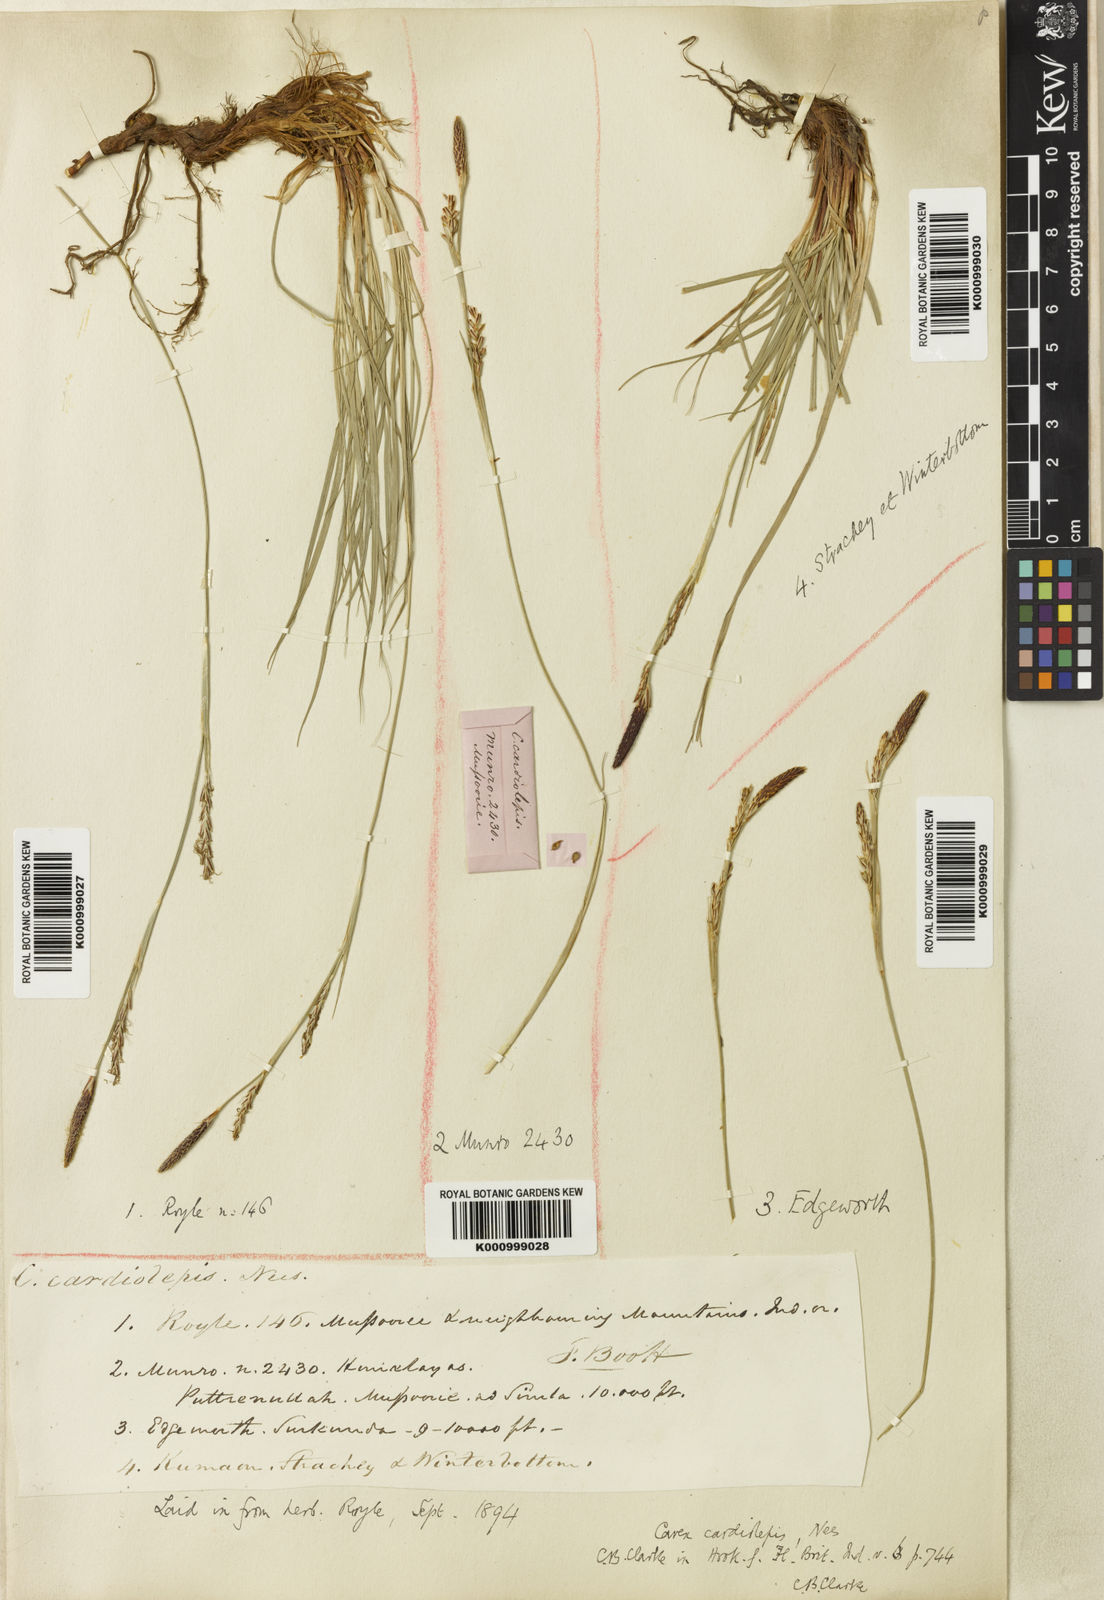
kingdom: Plantae
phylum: Tracheophyta
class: Liliopsida
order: Poales
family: Cyperaceae
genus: Carex
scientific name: Carex cardiolepis
